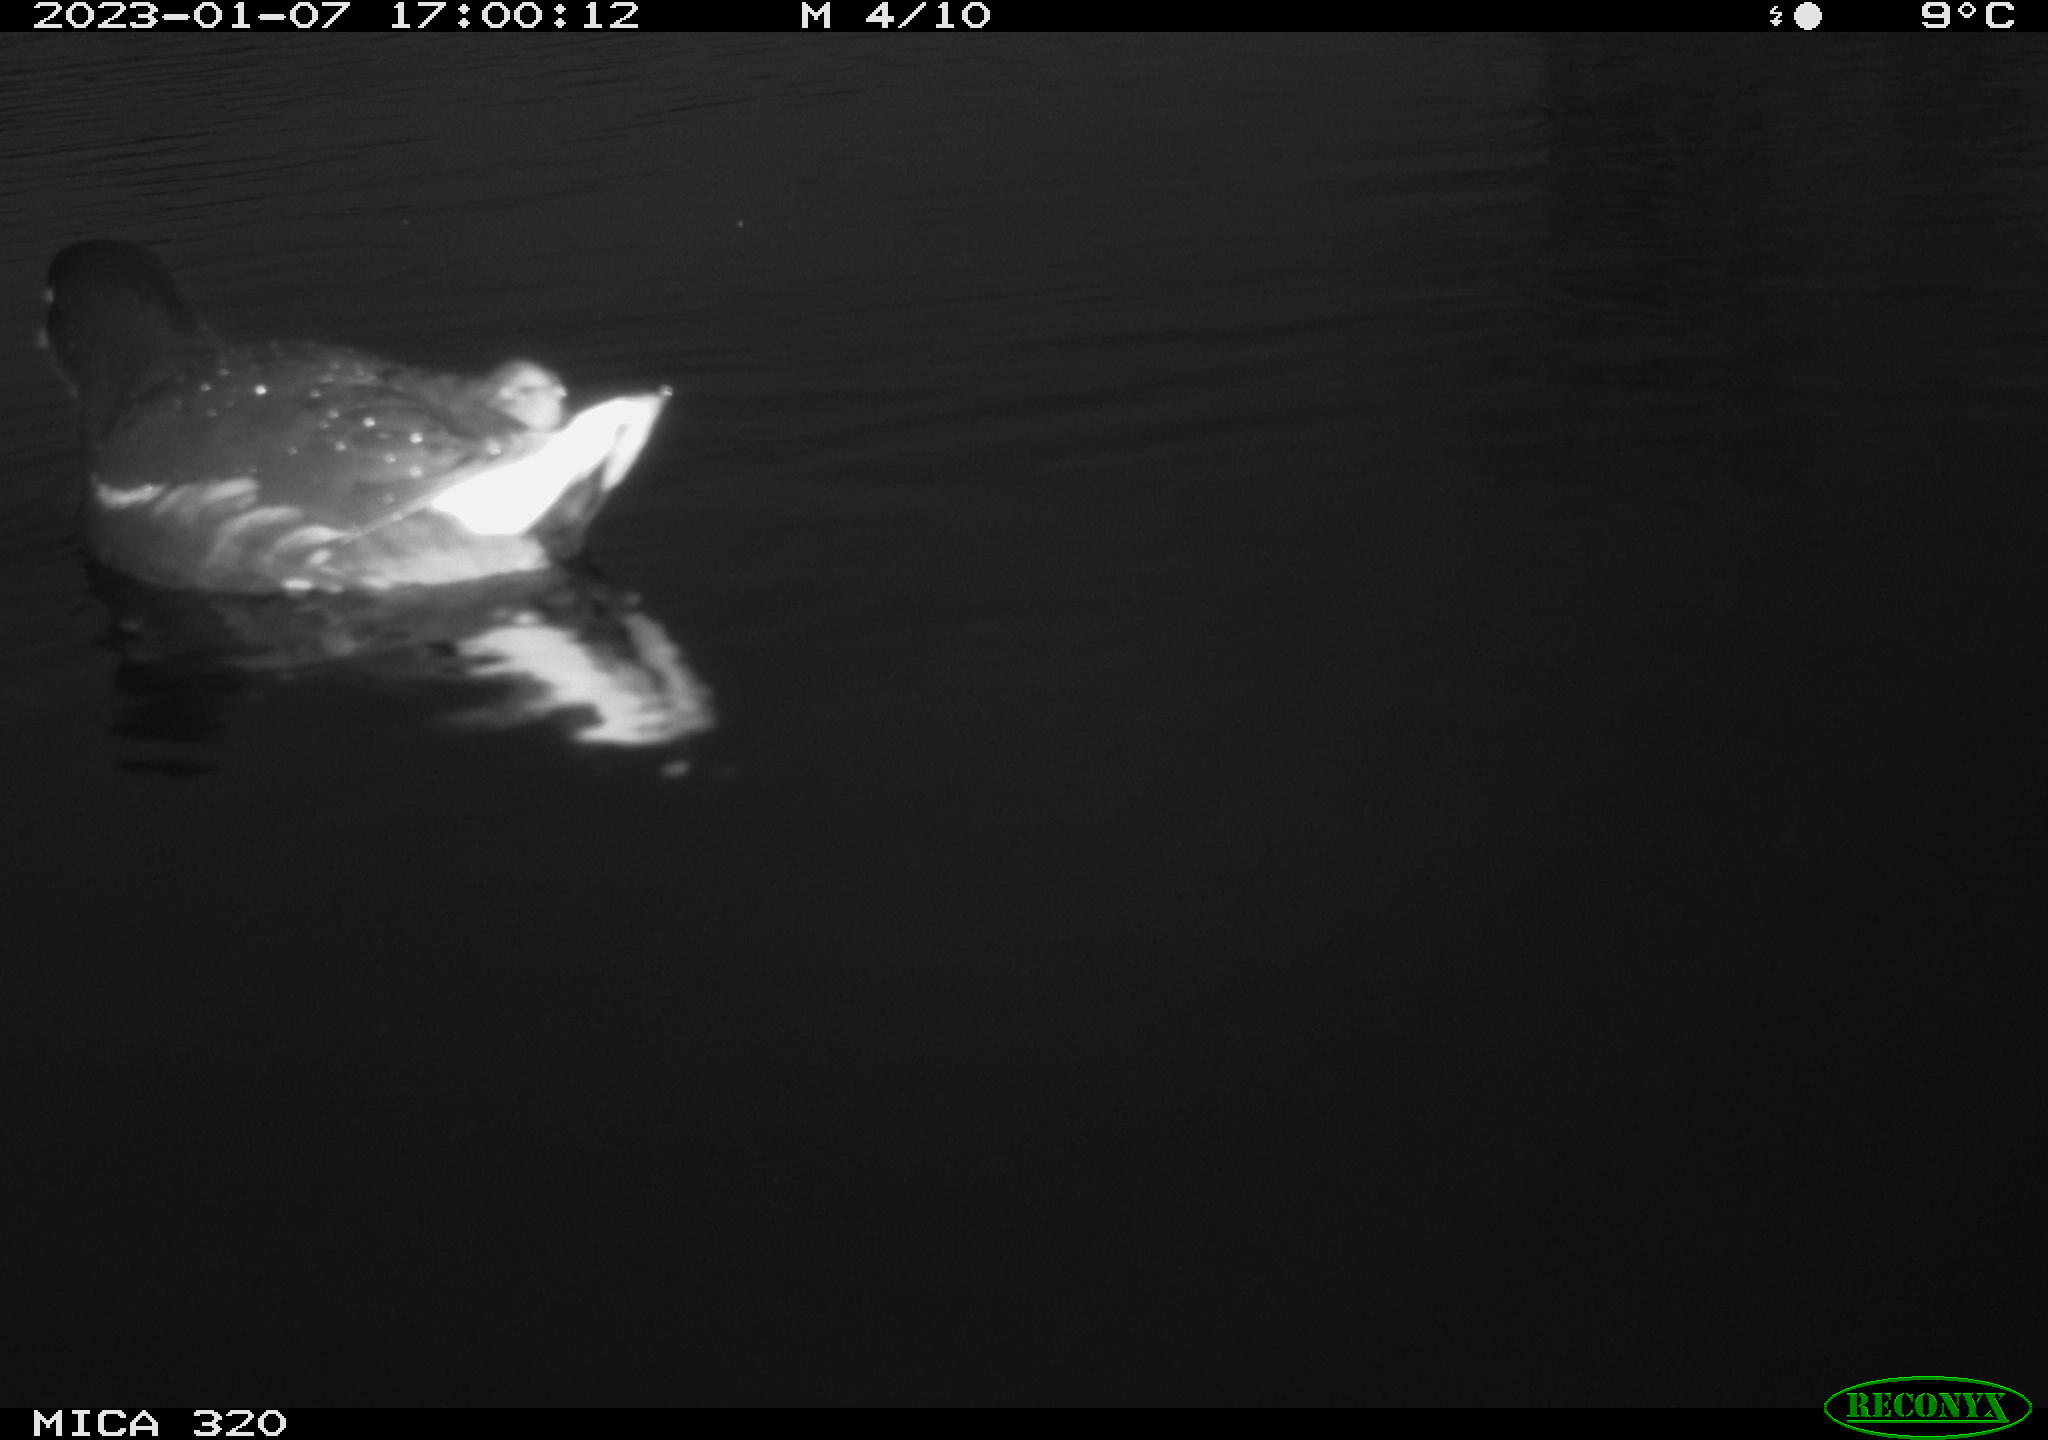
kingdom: Animalia
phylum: Chordata
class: Aves
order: Anseriformes
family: Anatidae
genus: Anas
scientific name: Anas
